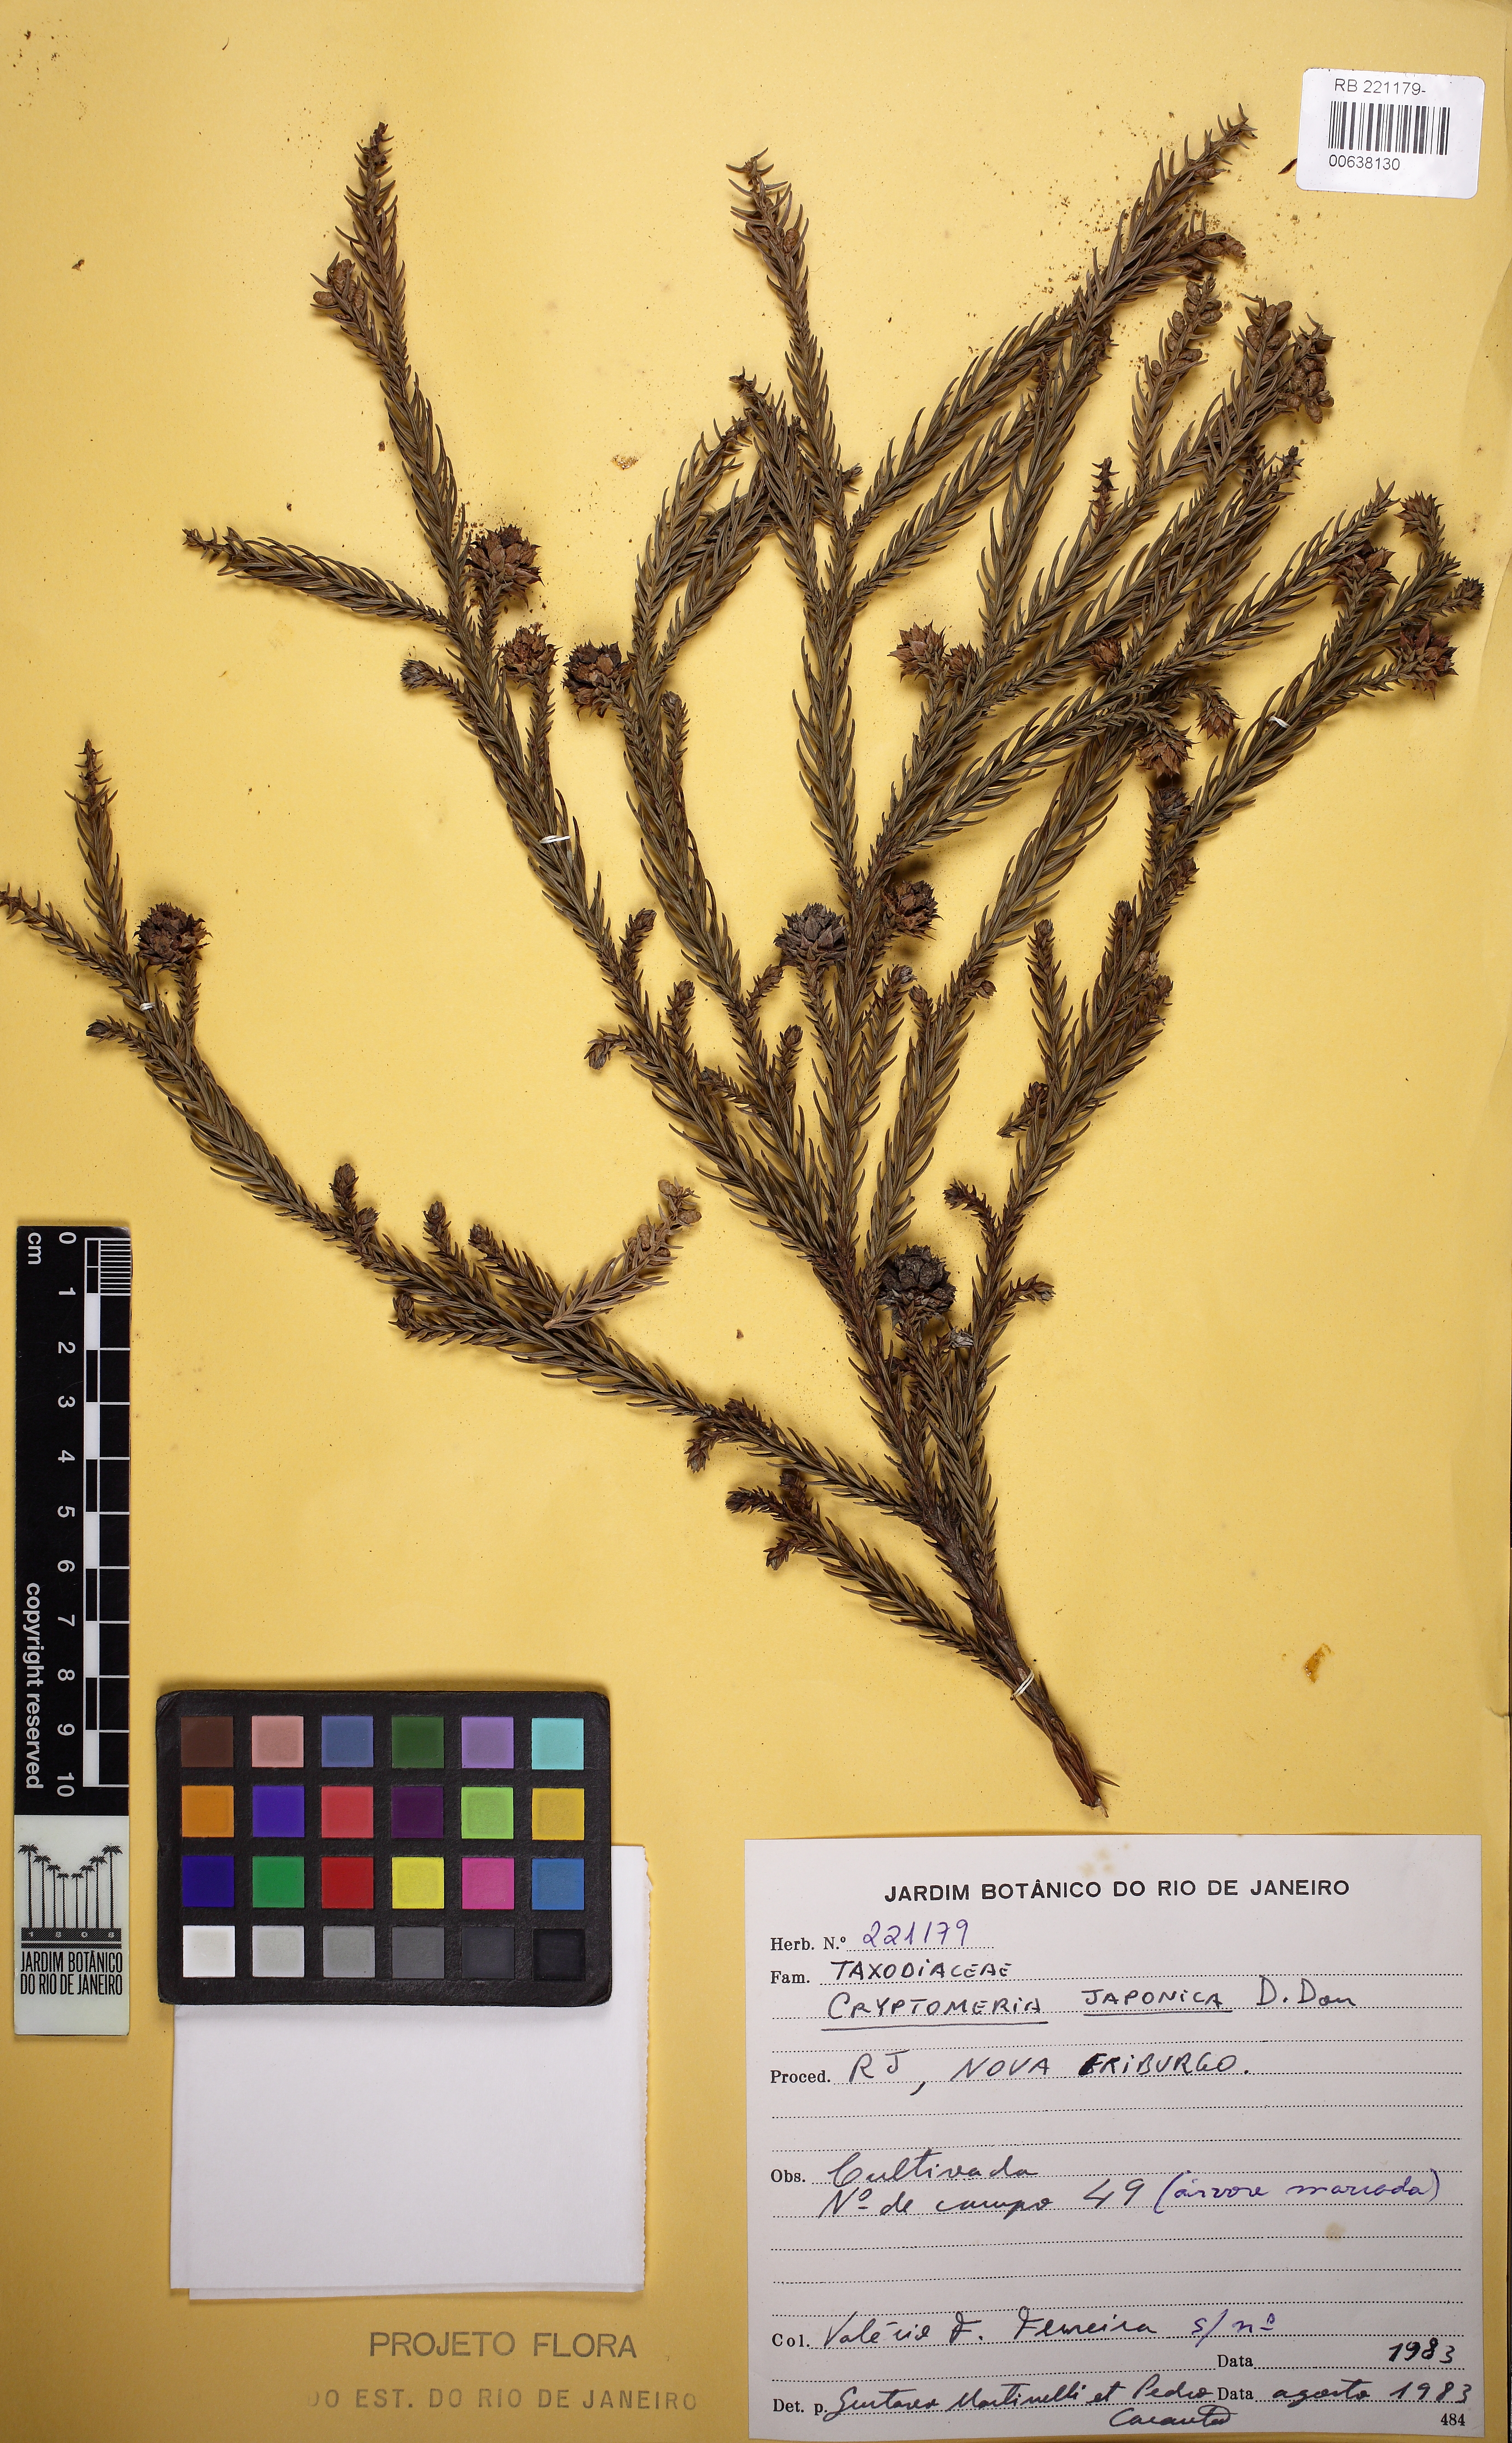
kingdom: Plantae
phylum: Tracheophyta
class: Pinopsida
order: Pinales
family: Cupressaceae
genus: Cryptomeria
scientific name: Cryptomeria japonica
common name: Japanese cedar
